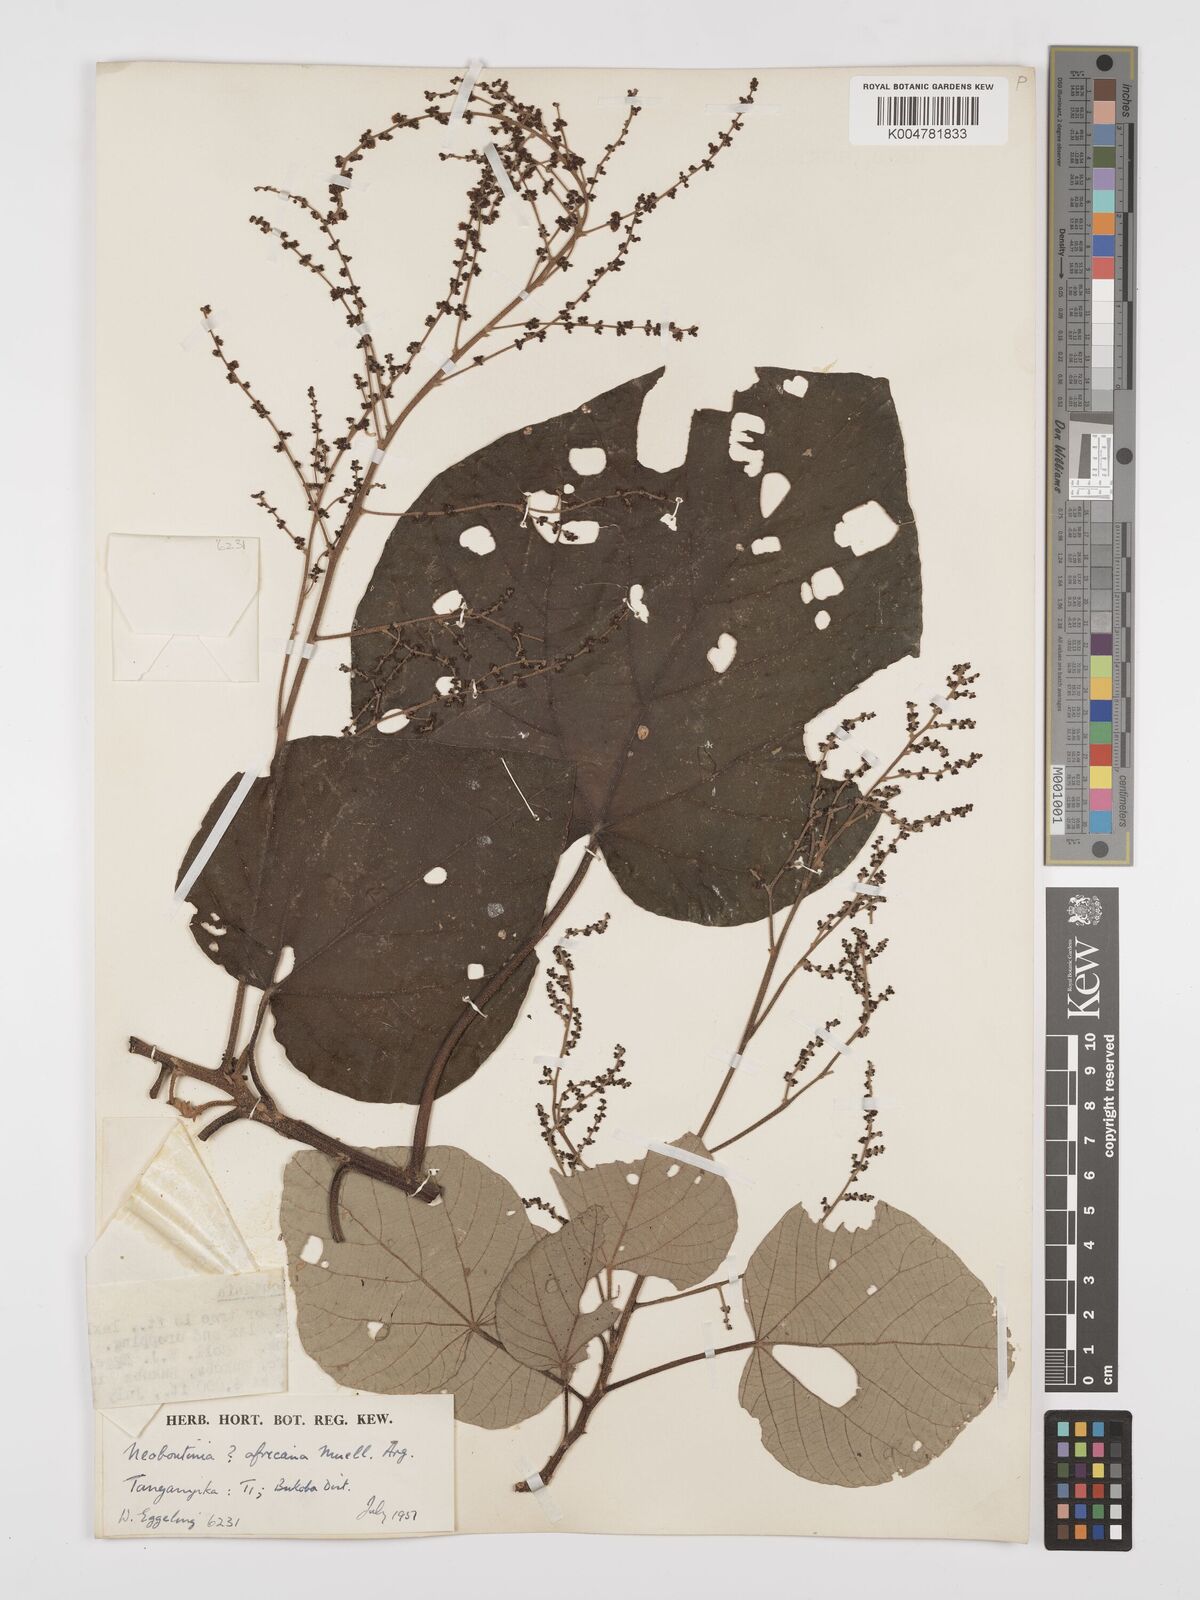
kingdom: Plantae
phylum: Tracheophyta
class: Magnoliopsida
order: Malpighiales
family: Euphorbiaceae
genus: Neoboutonia
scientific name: Neoboutonia melleri
